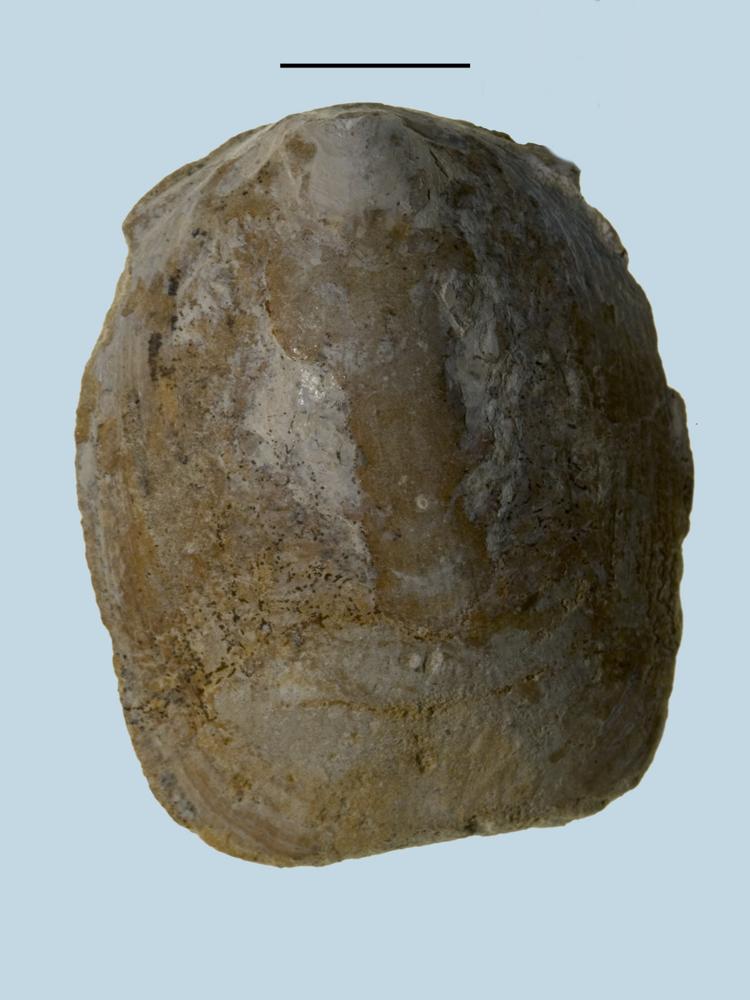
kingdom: Animalia
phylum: Brachiopoda
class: Lingulata
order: Lingulida
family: Pseudolingulidae
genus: Pseudolingula
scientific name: Pseudolingula Crania quadrata
